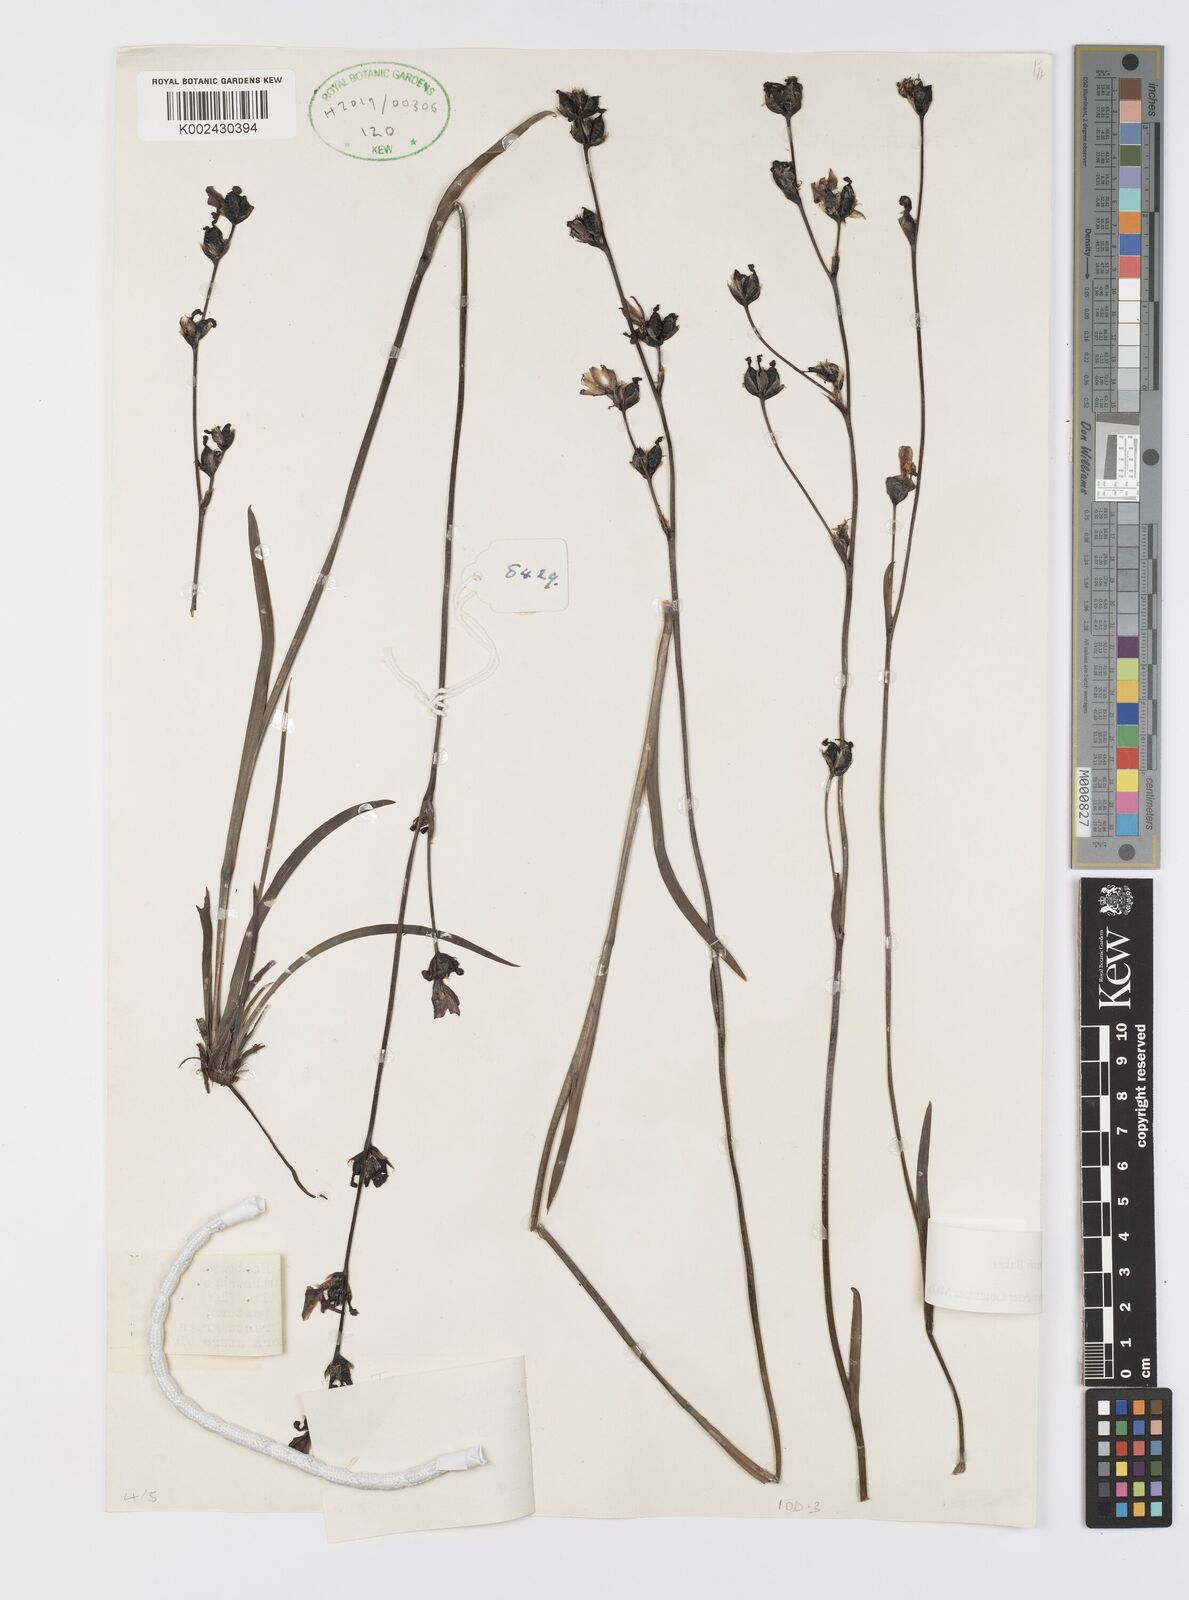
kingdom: Plantae
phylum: Tracheophyta
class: Liliopsida
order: Asparagales
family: Iridaceae
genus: Aristea
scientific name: Aristea angolensis
